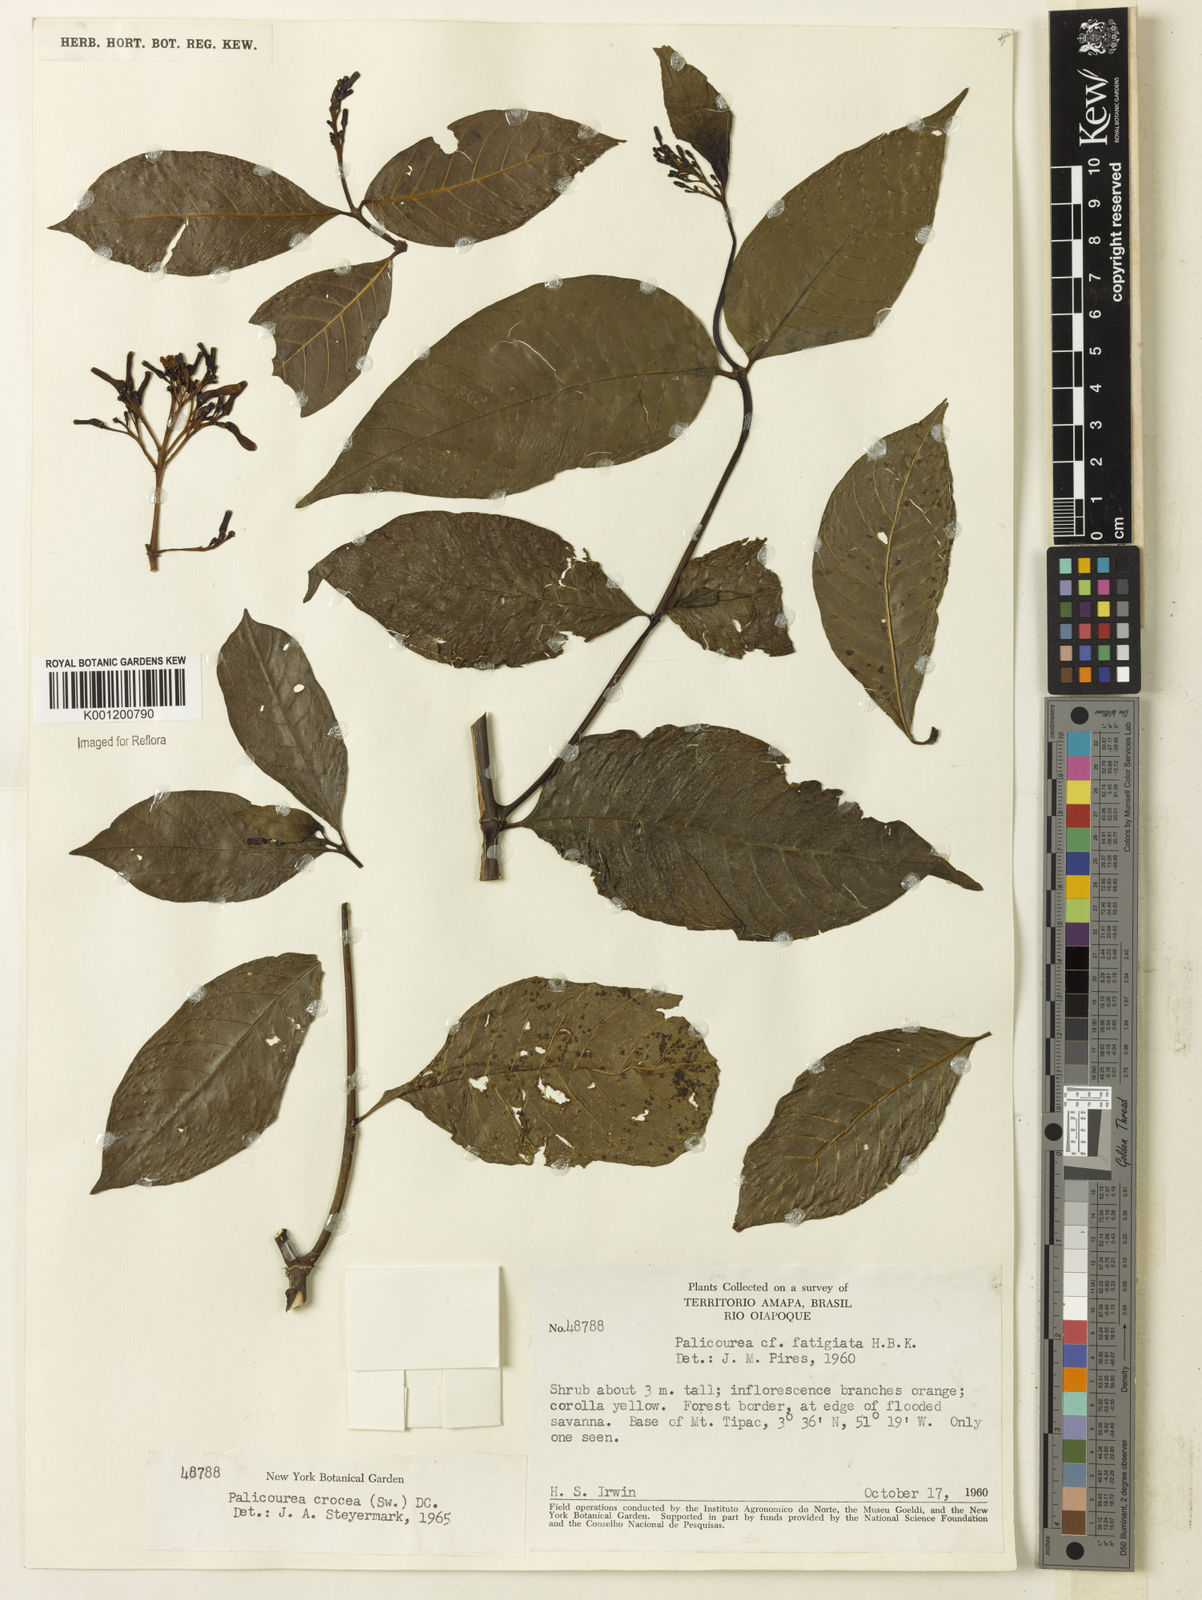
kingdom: Plantae
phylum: Tracheophyta
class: Magnoliopsida
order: Gentianales
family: Rubiaceae
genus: Palicourea
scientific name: Palicourea crocea
